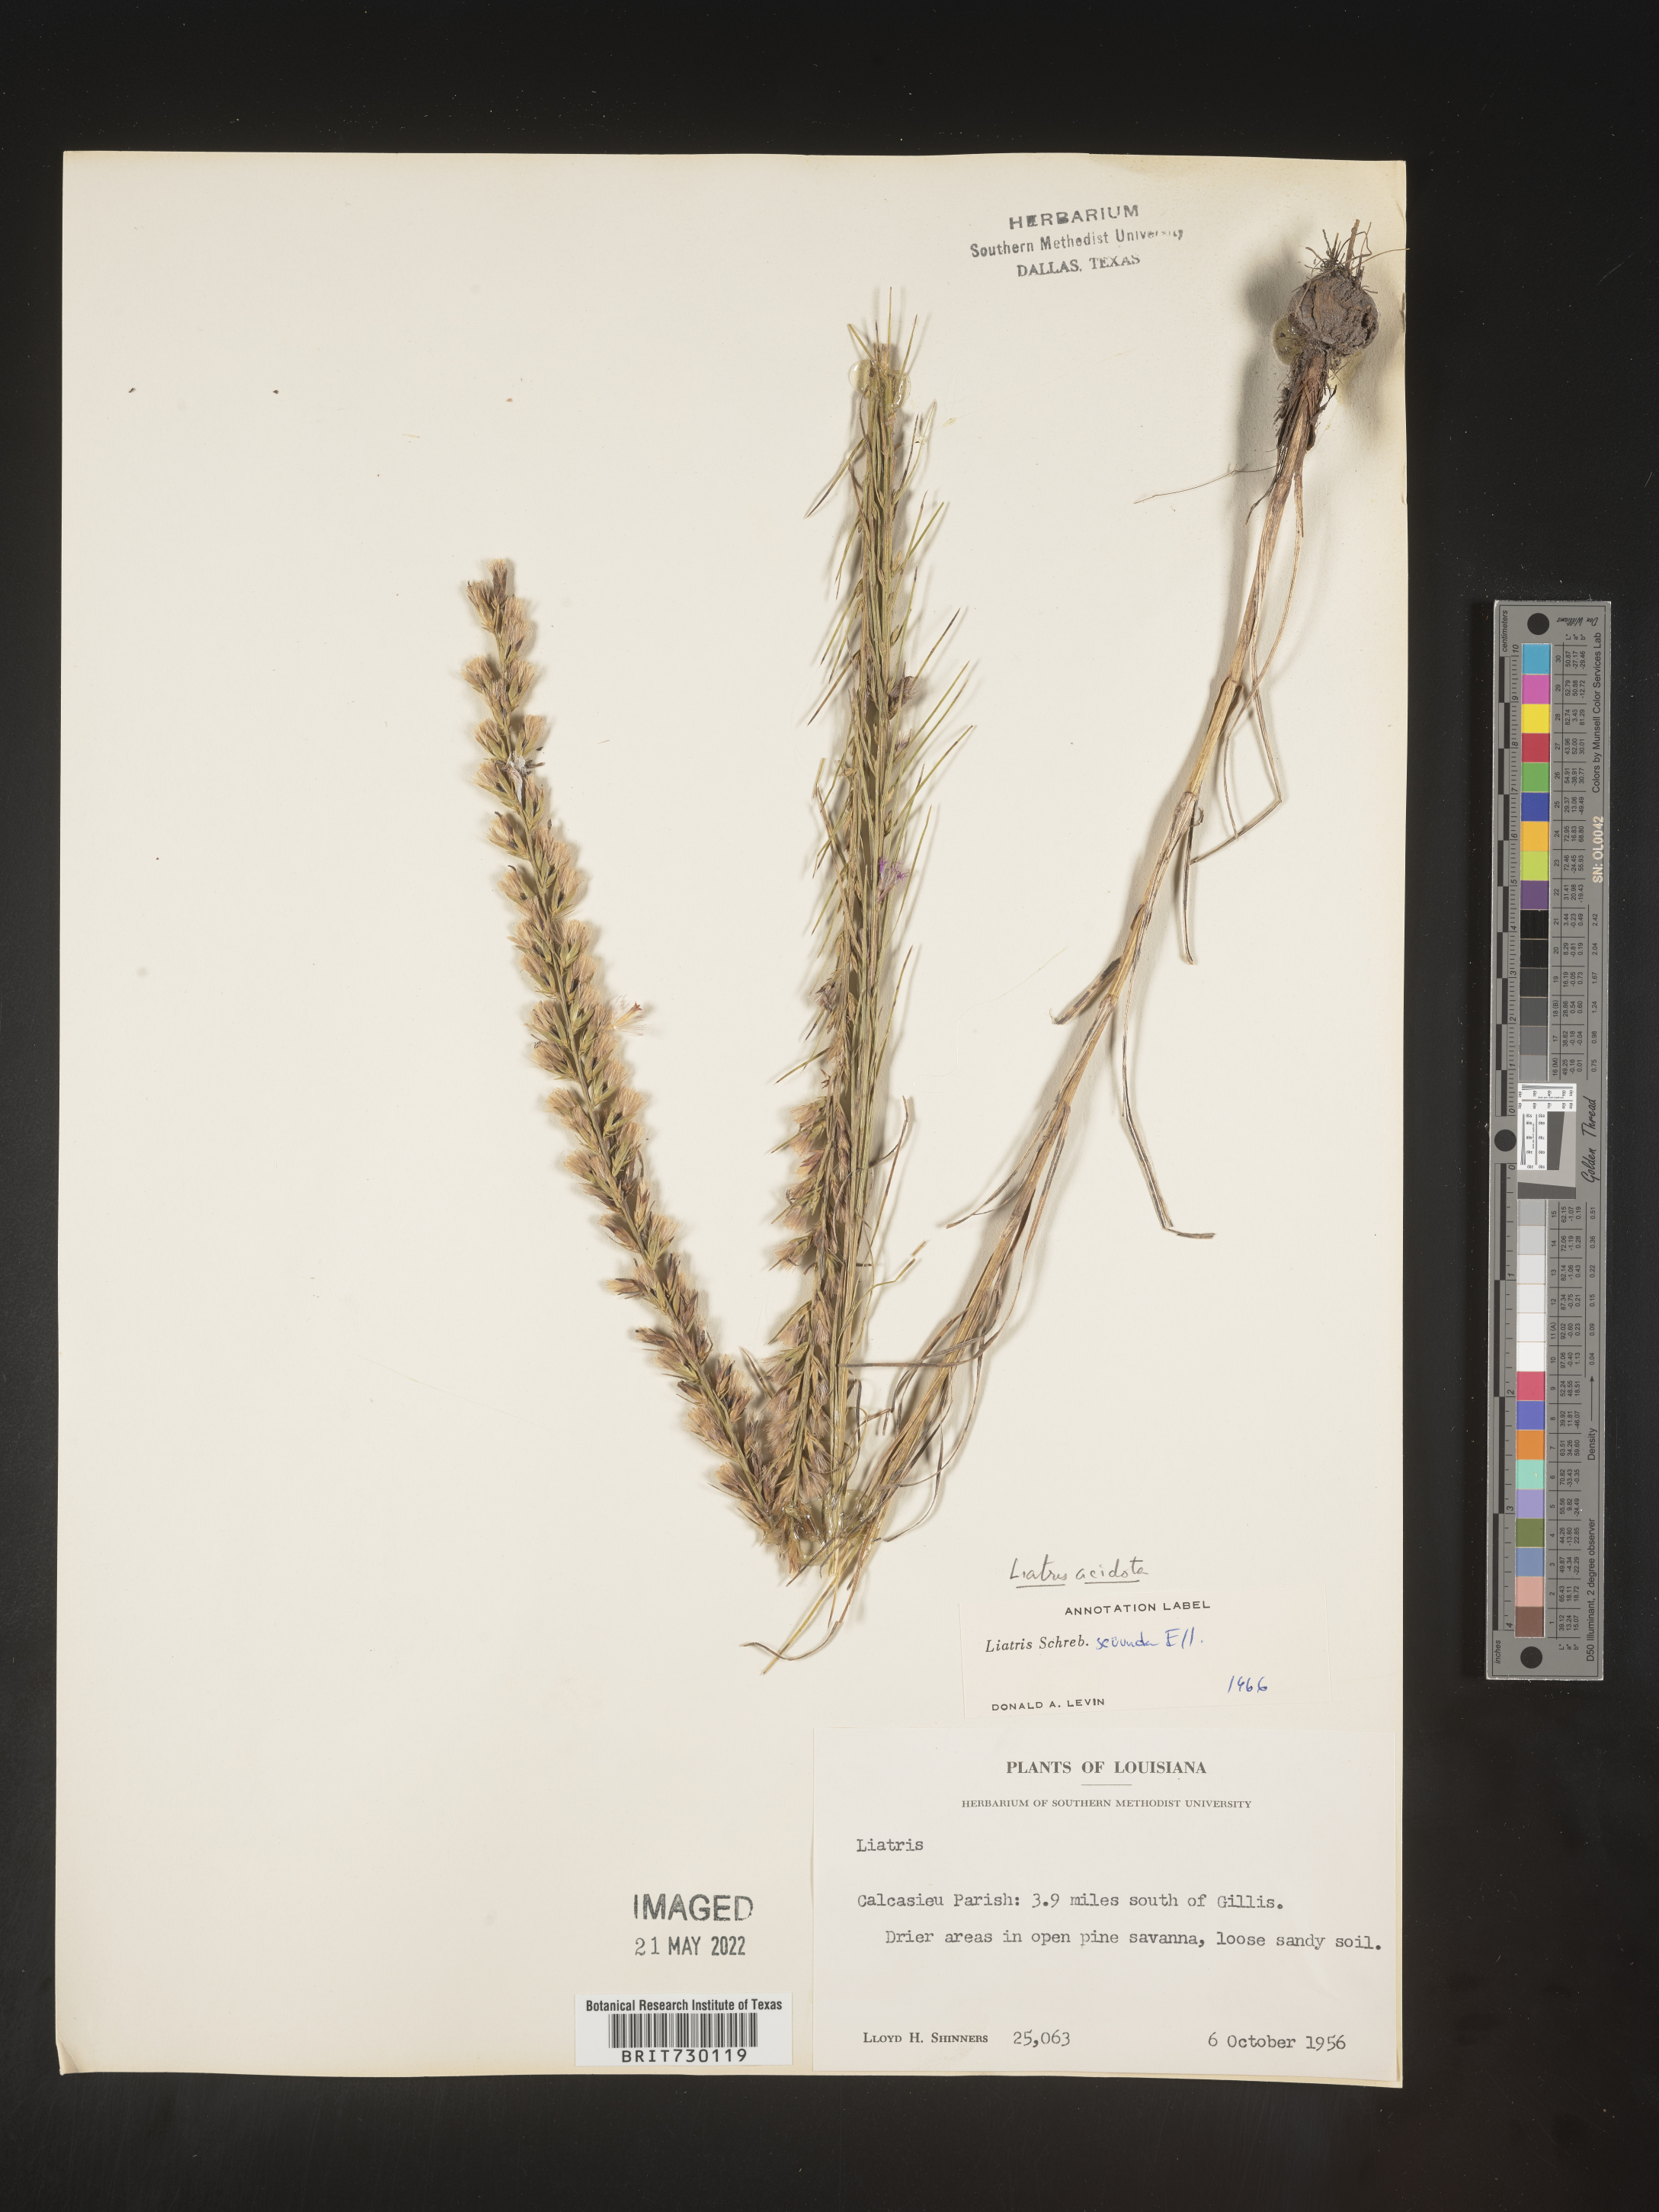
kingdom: Plantae
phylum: Tracheophyta
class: Magnoliopsida
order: Asterales
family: Asteraceae
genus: Liatris
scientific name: Liatris acidota
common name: Gulf coast gayfeather
